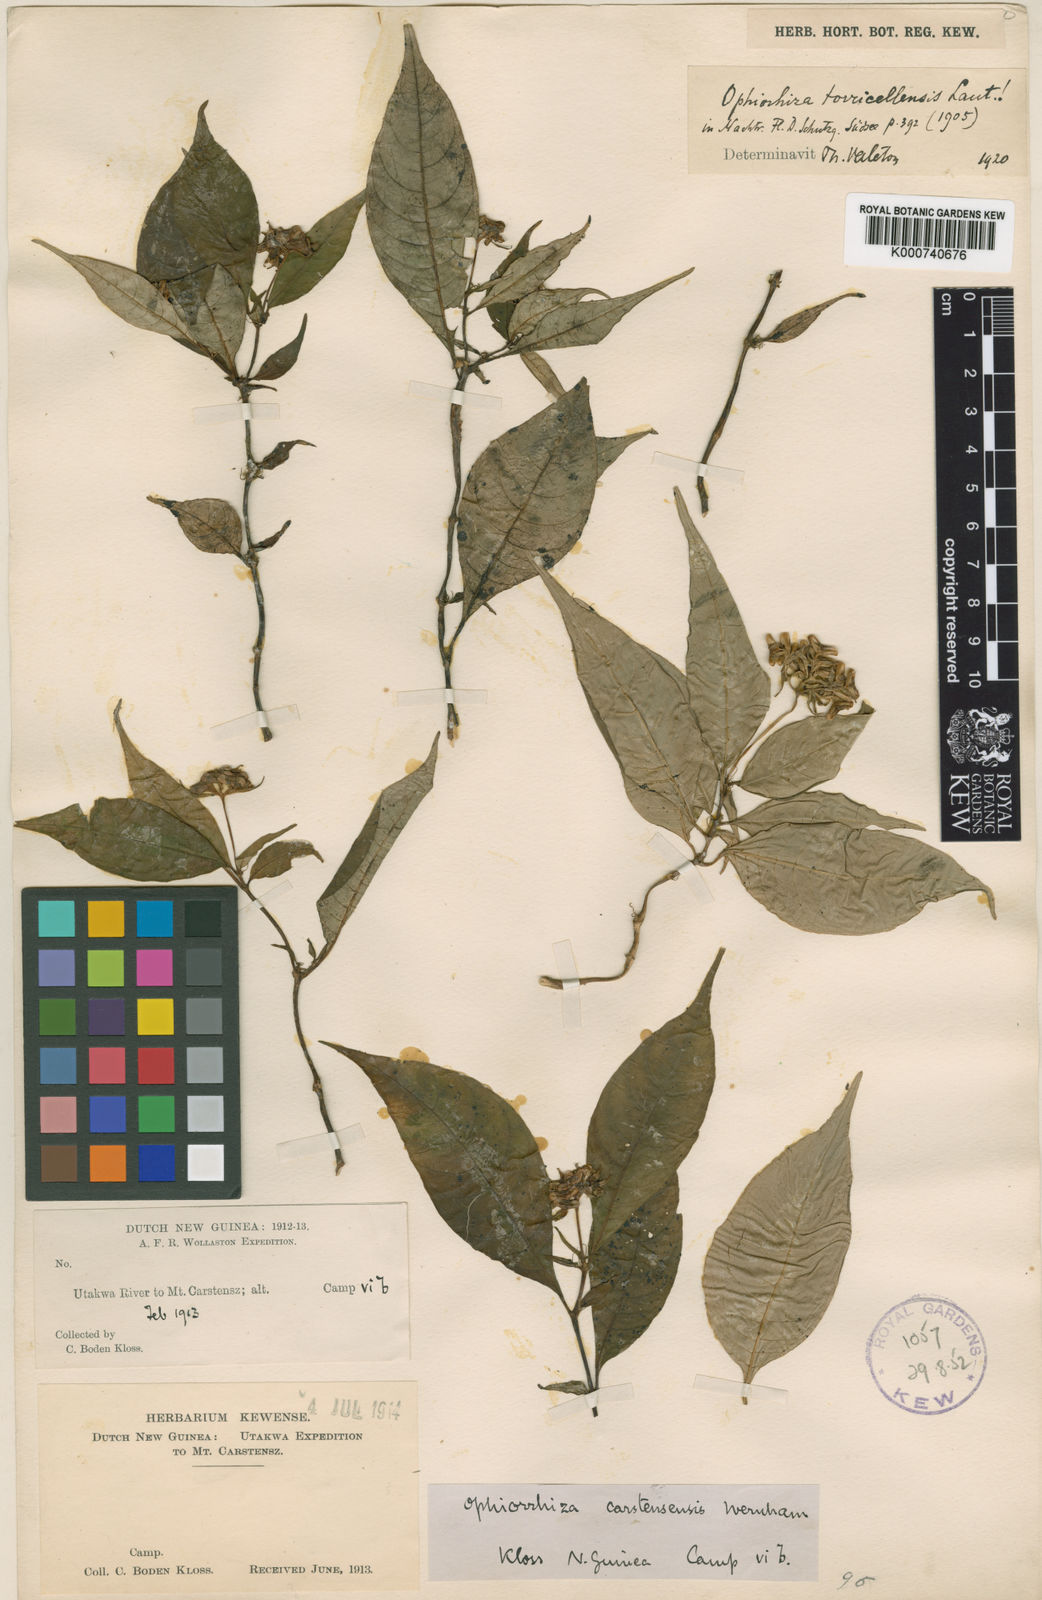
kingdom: Plantae
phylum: Tracheophyta
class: Magnoliopsida
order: Gentianales
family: Rubiaceae
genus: Ophiorrhiza
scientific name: Ophiorrhiza carstensensis
